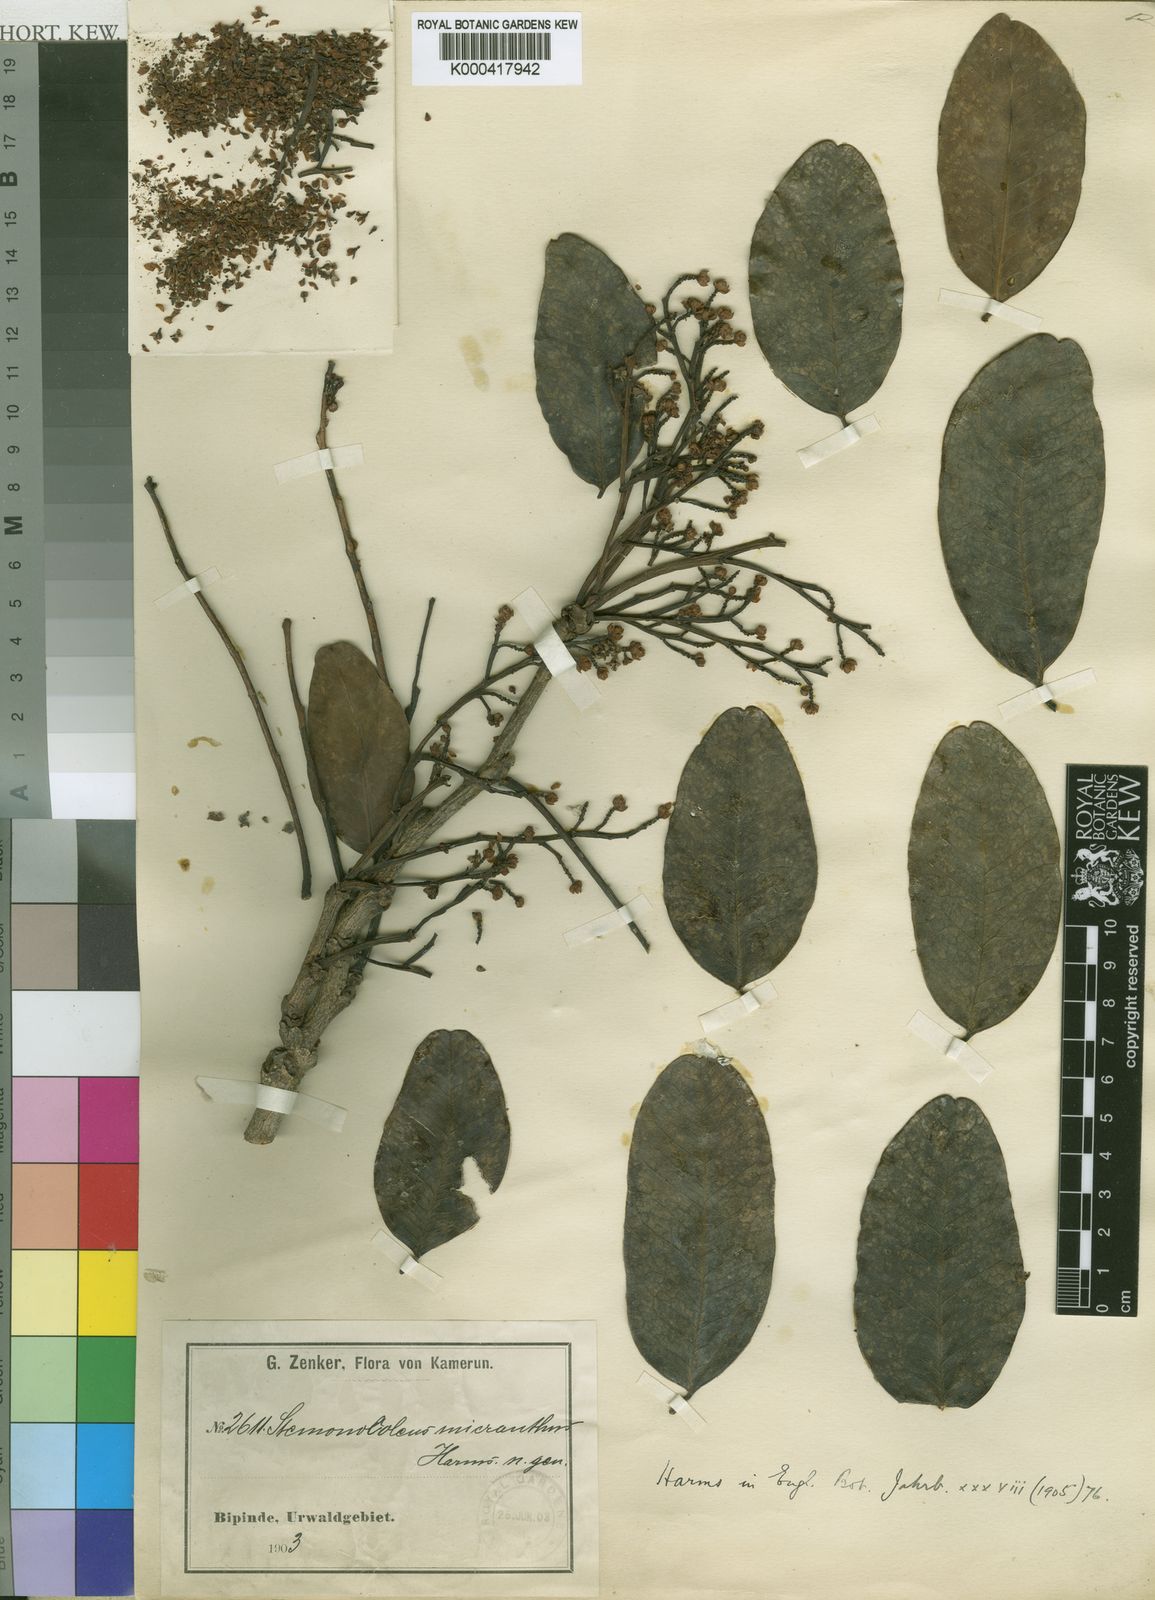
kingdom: Plantae
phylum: Tracheophyta
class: Magnoliopsida
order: Fabales
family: Fabaceae
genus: Stemonocoleus
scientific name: Stemonocoleus micranthus
